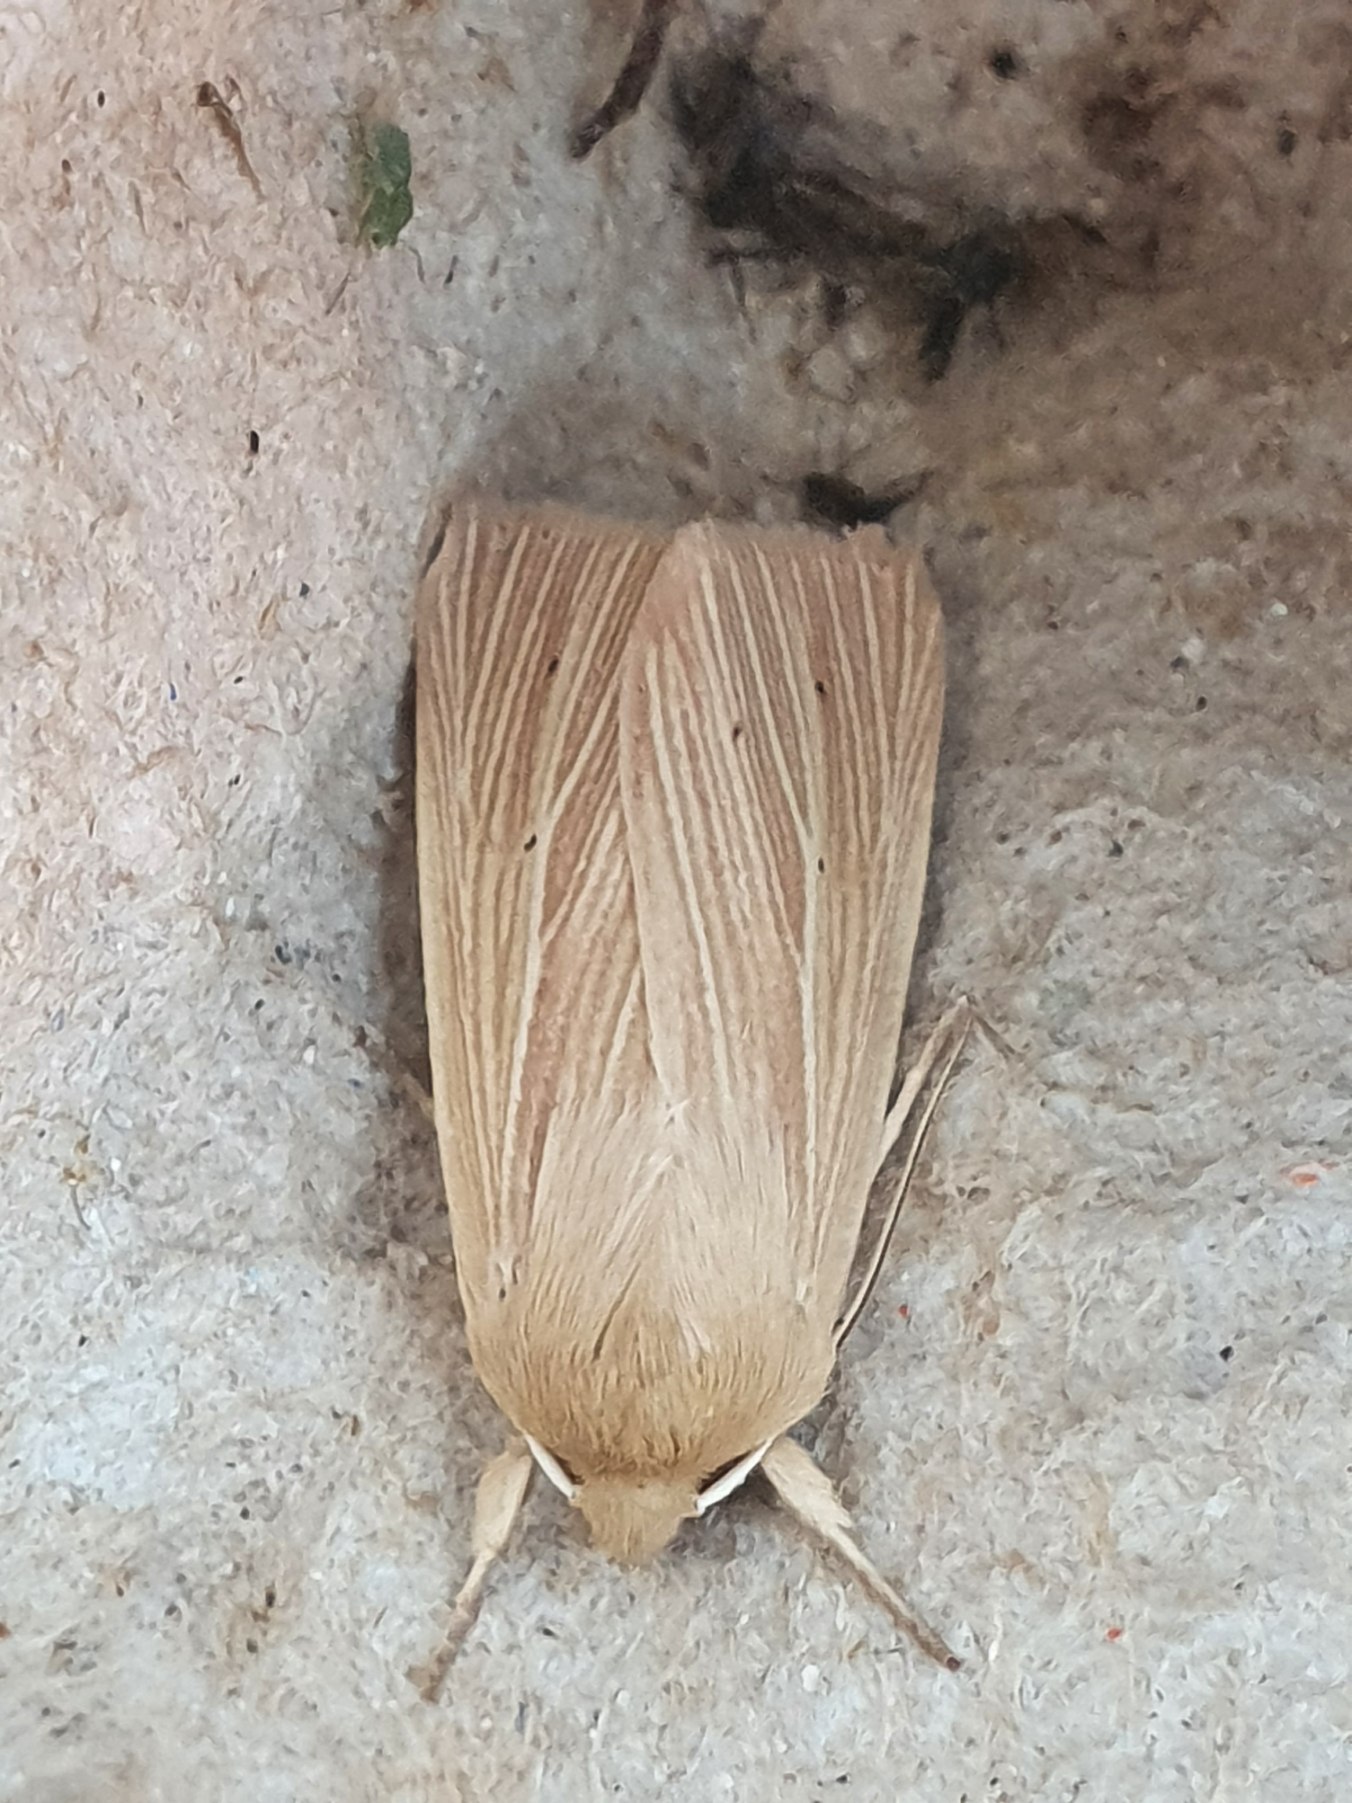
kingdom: Animalia
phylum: Arthropoda
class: Insecta
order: Lepidoptera
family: Noctuidae
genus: Mythimna
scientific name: Mythimna pallens
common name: Halmugle
